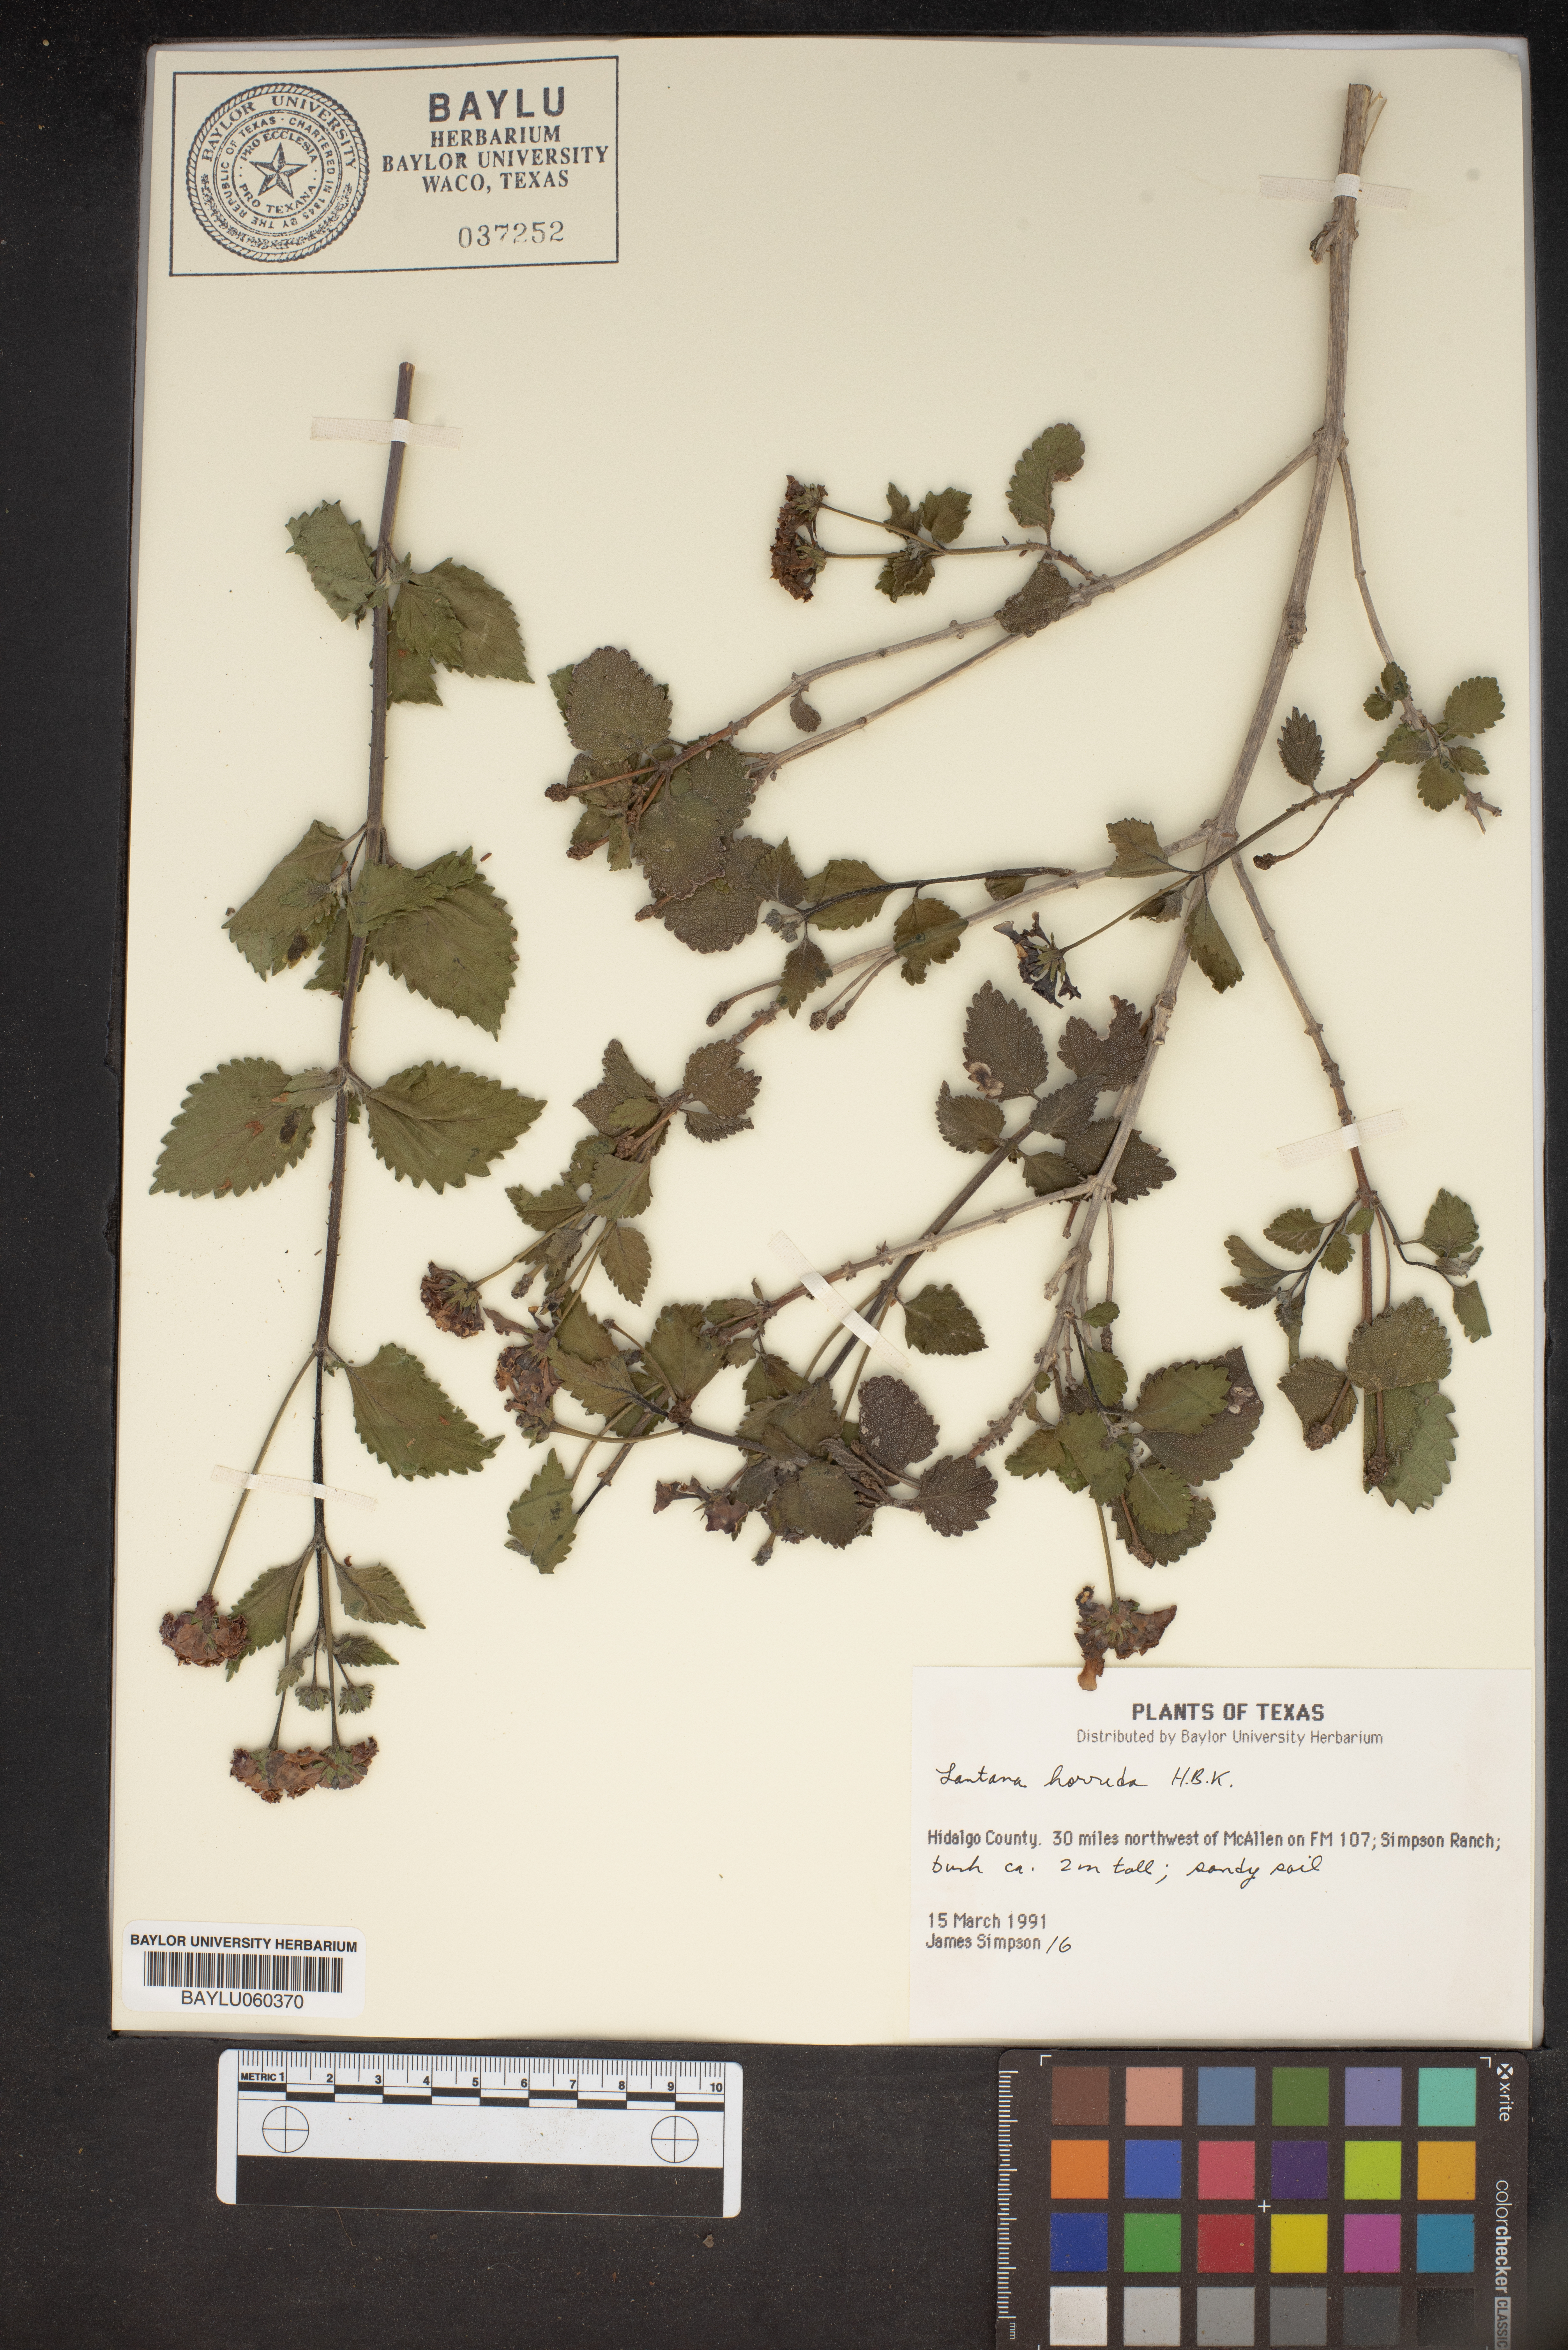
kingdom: Plantae
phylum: Tracheophyta
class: Magnoliopsida
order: Lamiales
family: Verbenaceae
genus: Lantana
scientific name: Lantana horrida
